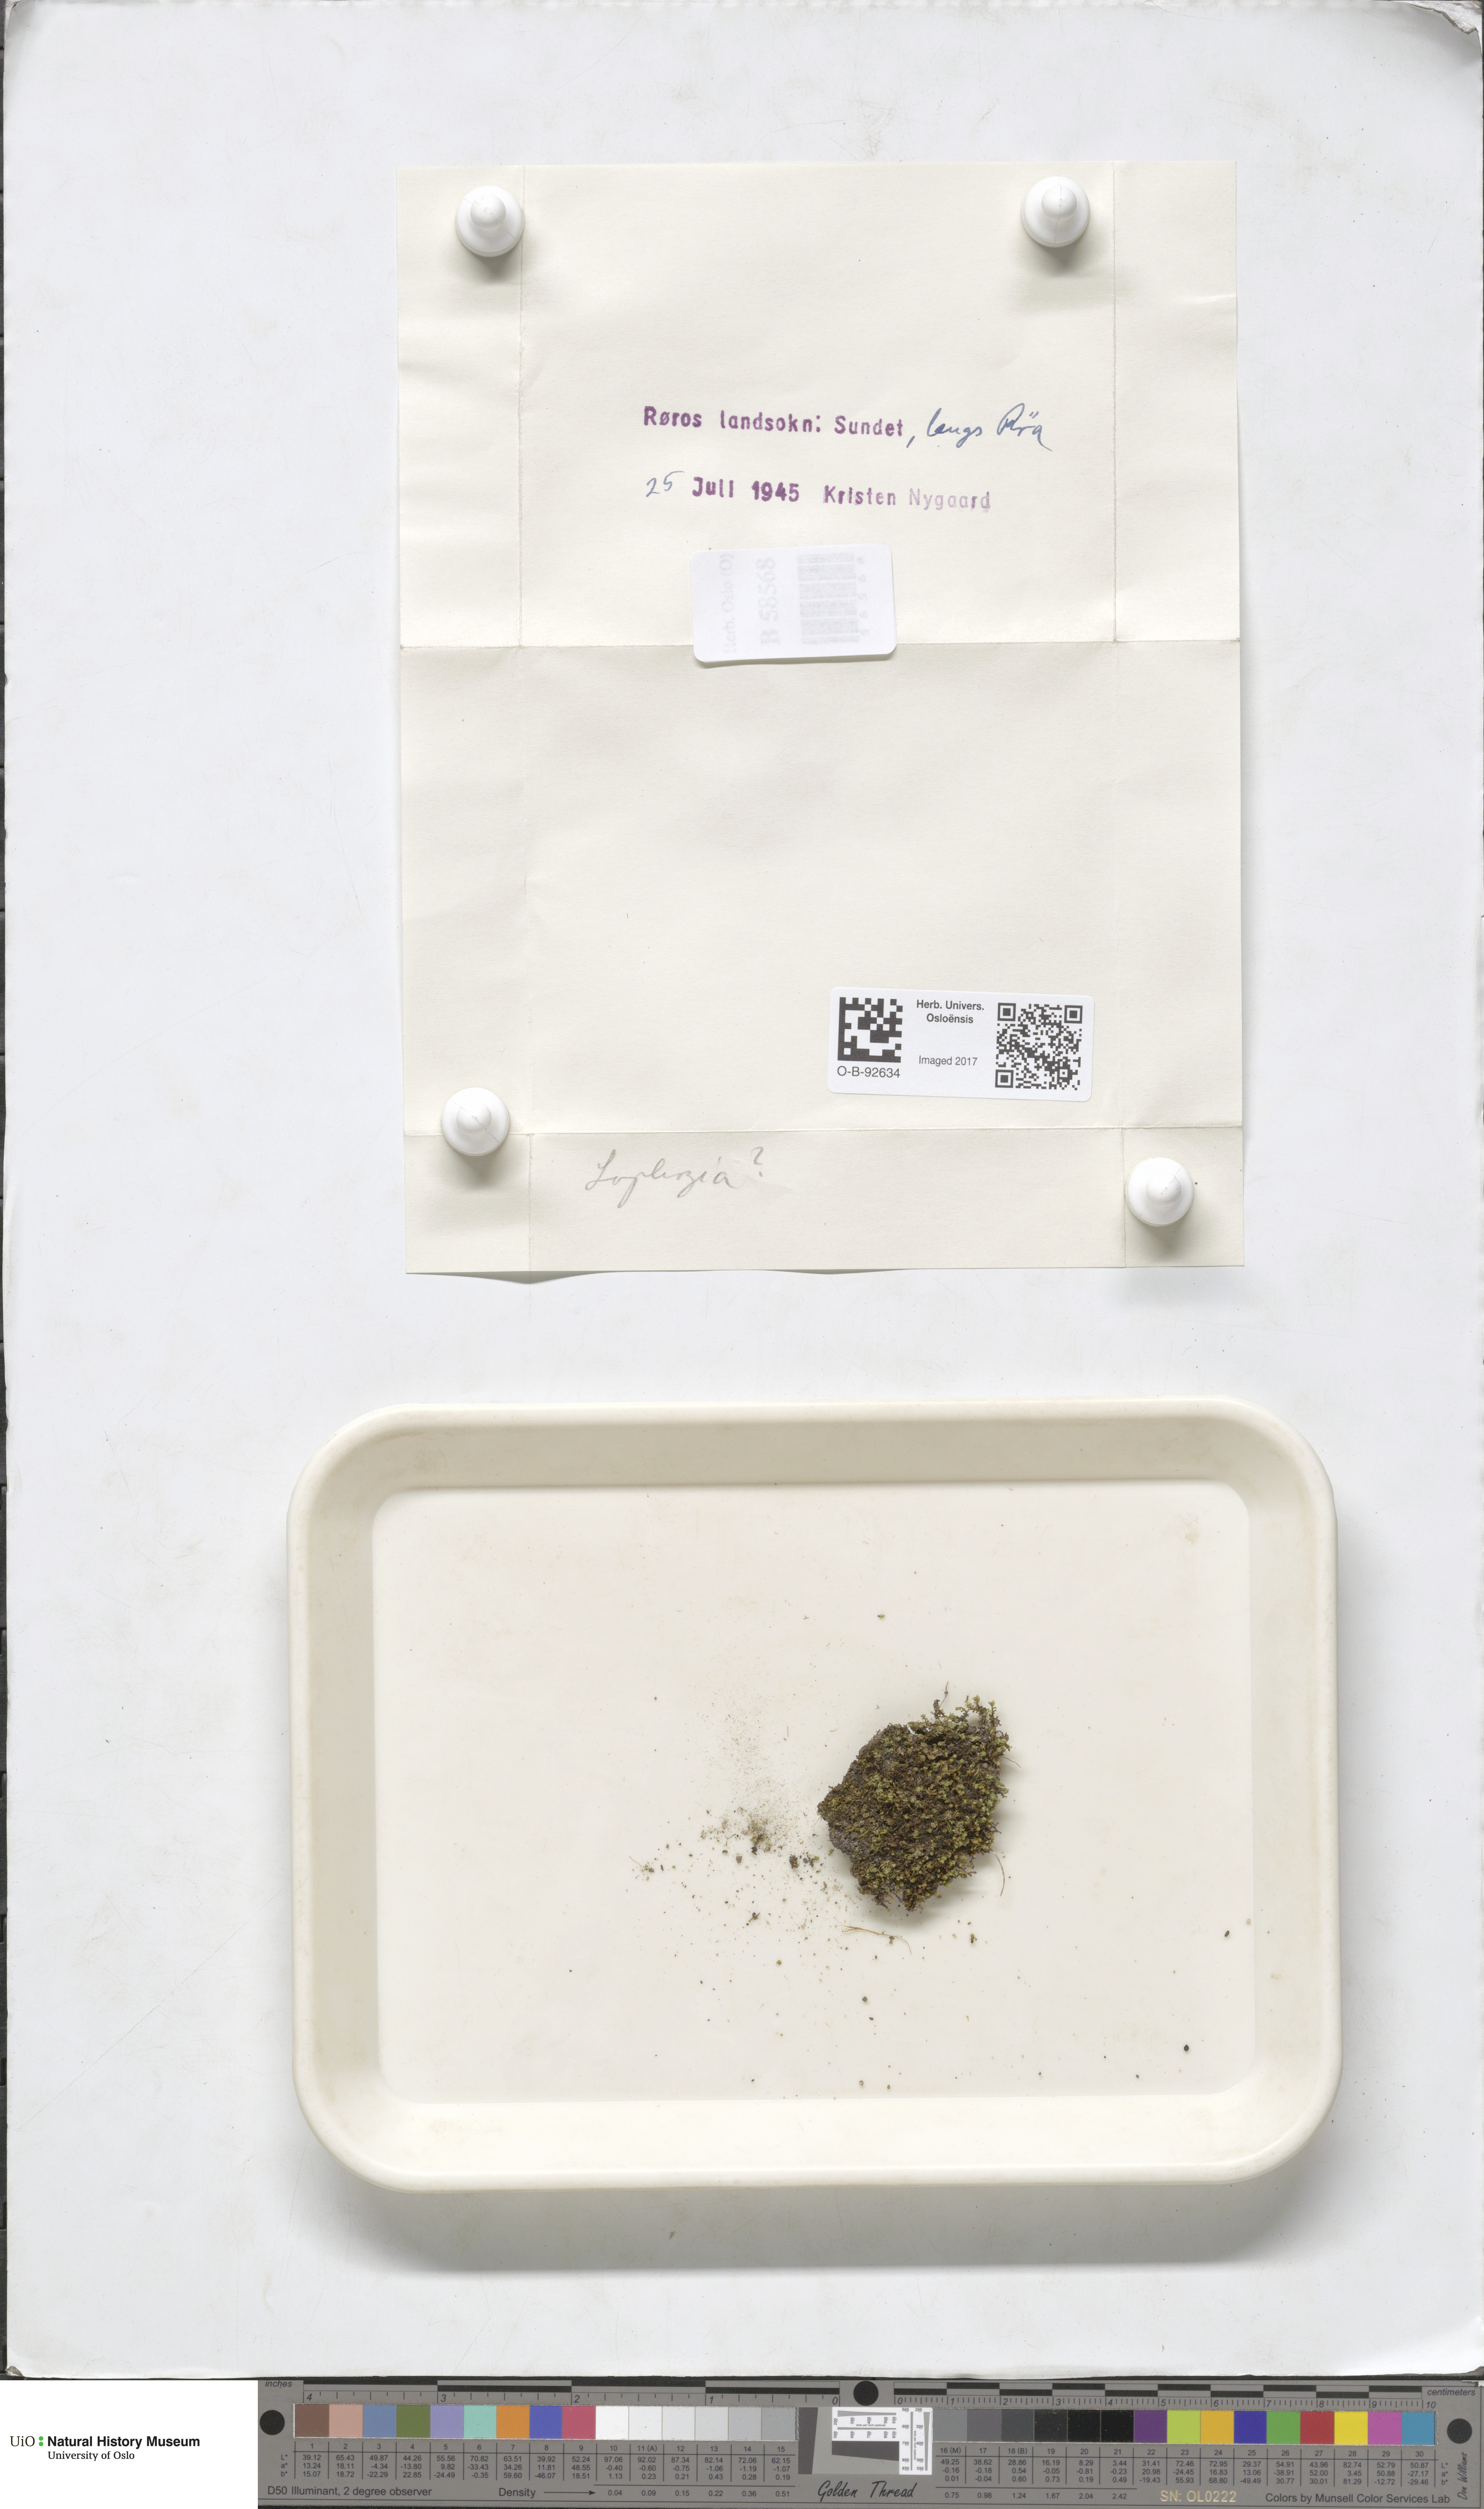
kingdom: Plantae
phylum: Marchantiophyta
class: Jungermanniopsida
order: Jungermanniales
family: Lophoziaceae
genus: Lophozia
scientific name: Lophozia
